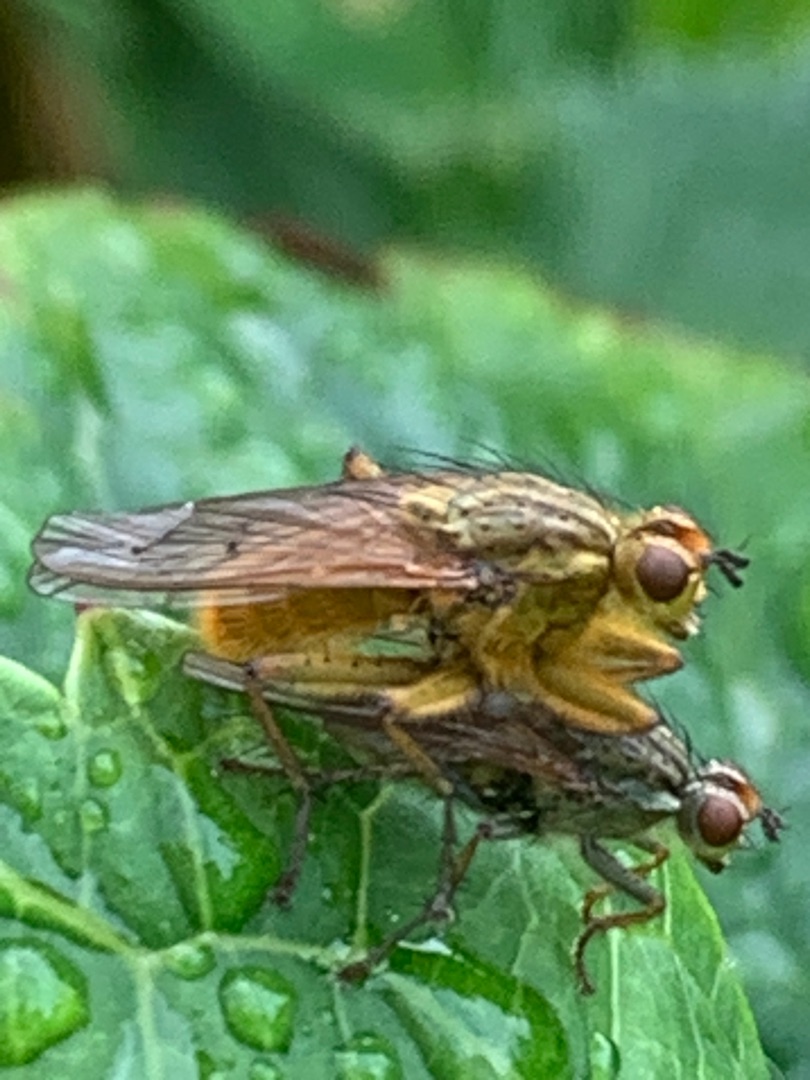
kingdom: Animalia
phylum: Arthropoda
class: Insecta
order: Diptera
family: Scathophagidae
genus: Scathophaga
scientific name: Scathophaga stercoraria
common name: Almindelig gødningsflue
